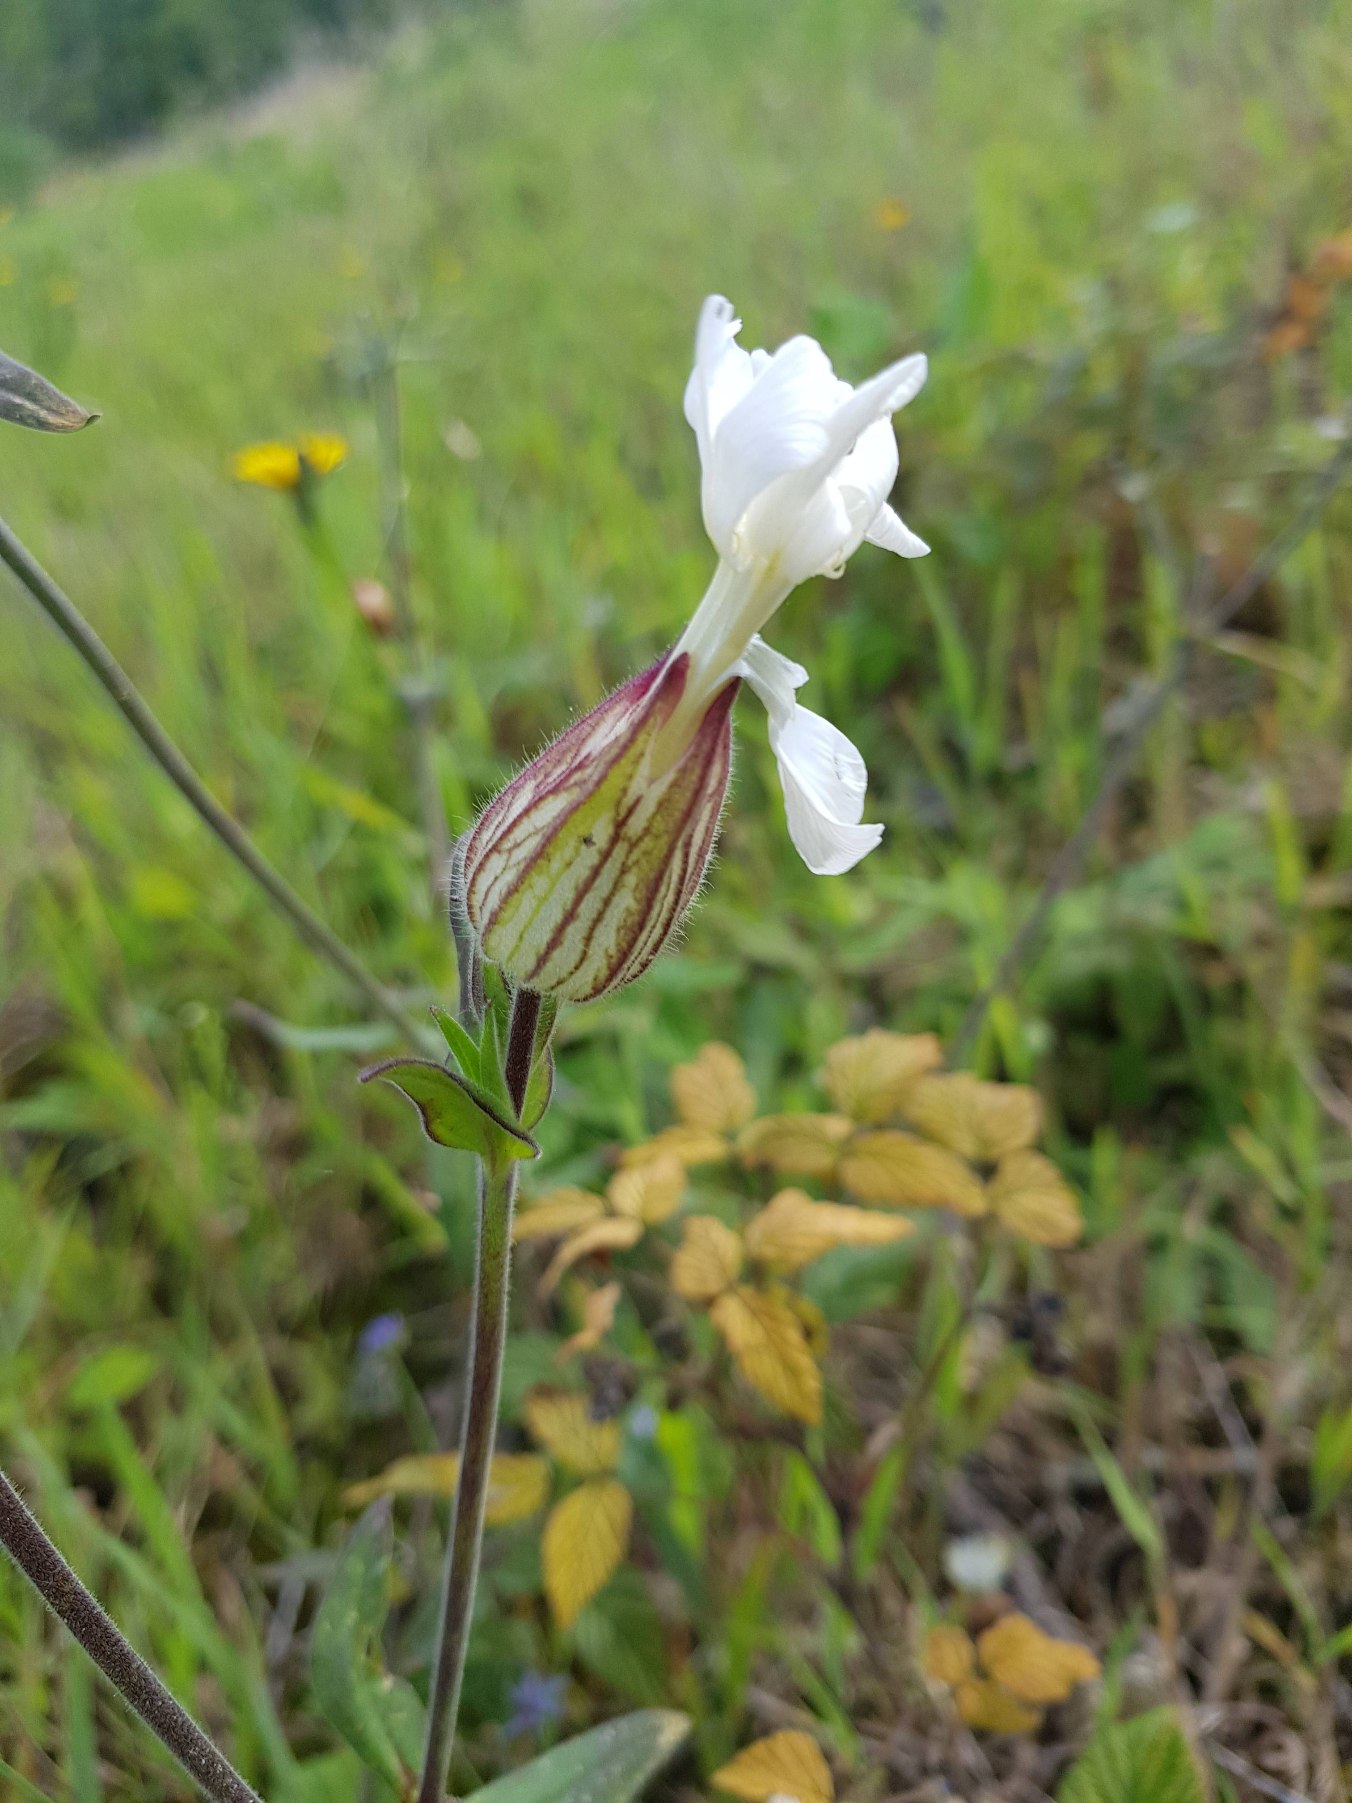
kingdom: Plantae
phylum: Tracheophyta
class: Magnoliopsida
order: Caryophyllales
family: Caryophyllaceae
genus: Silene
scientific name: Silene latifolia
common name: Aftenpragtstjerne
